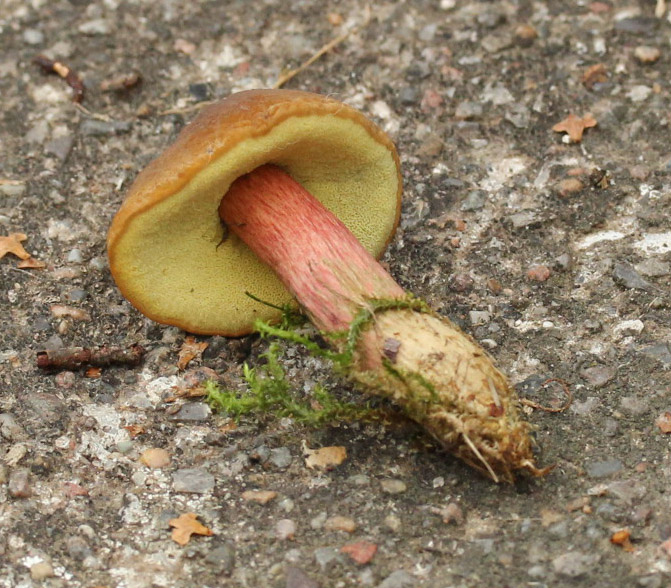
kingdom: Fungi
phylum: Basidiomycota
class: Agaricomycetes
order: Boletales
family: Boletaceae
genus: Hortiboletus
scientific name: Hortiboletus bubalinus
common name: aurora-rørhat
